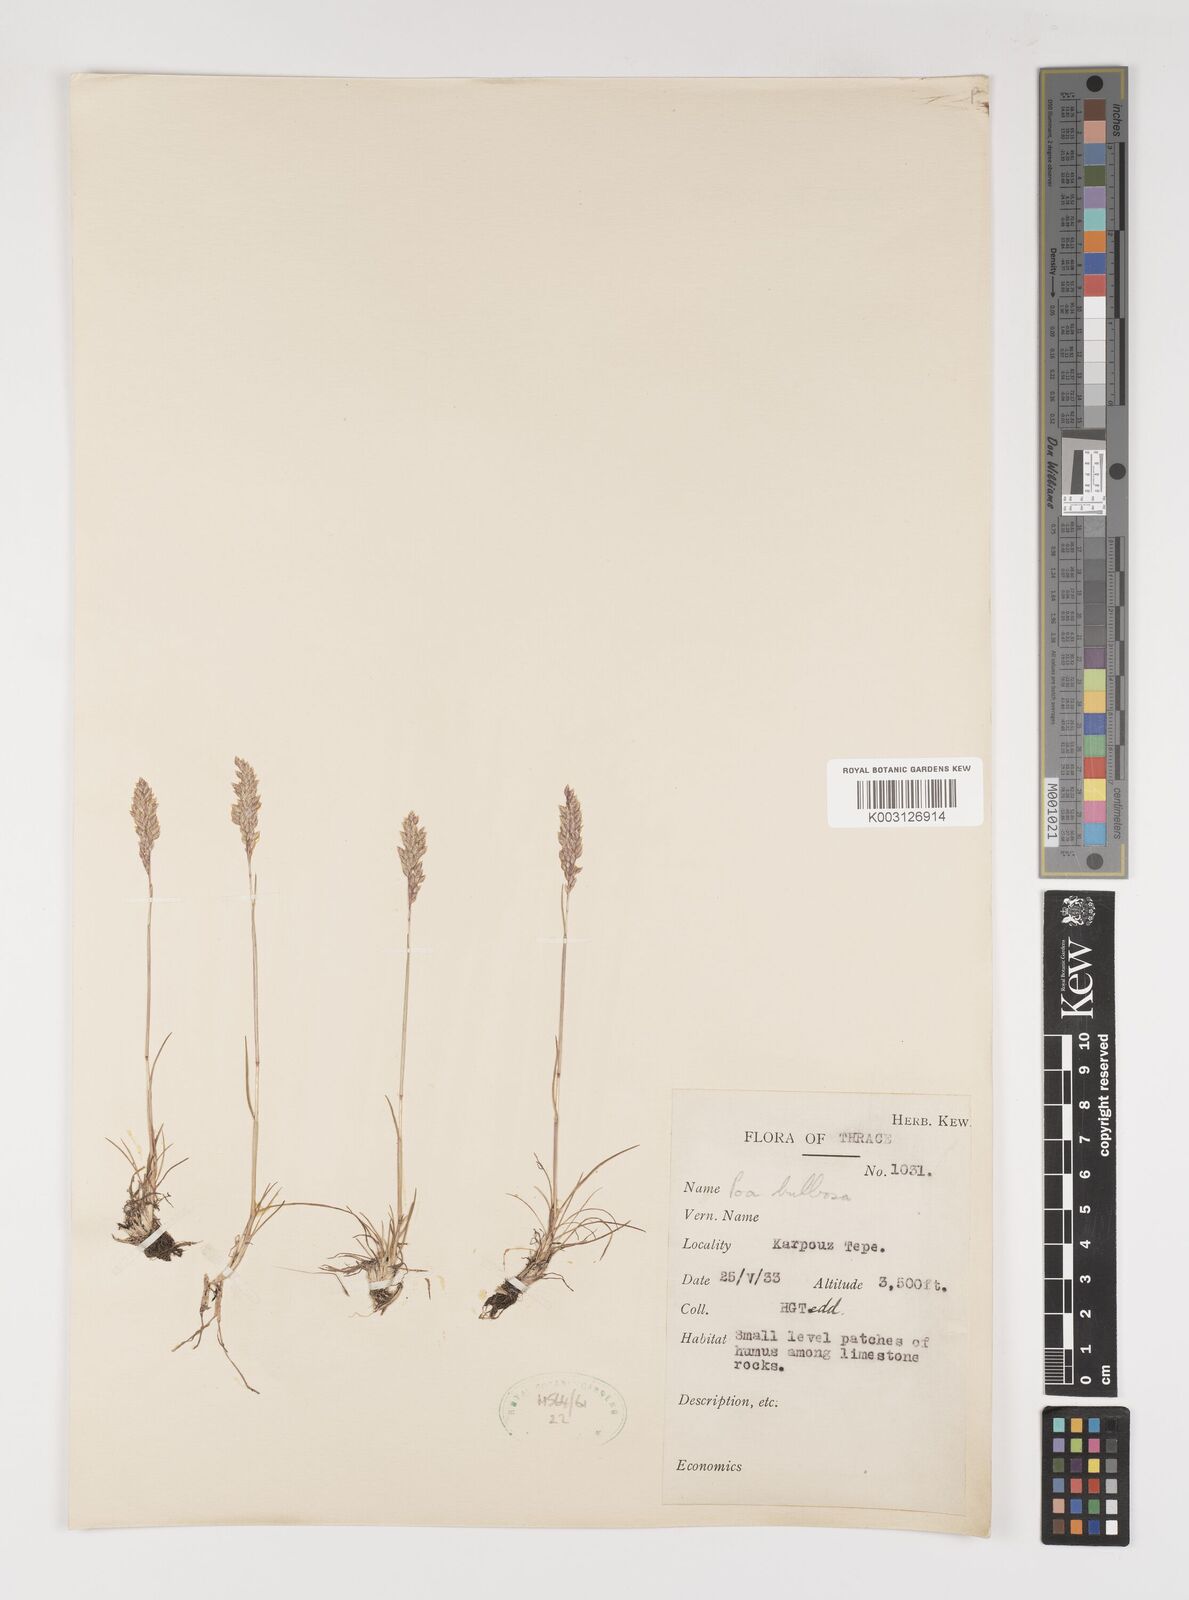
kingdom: Plantae
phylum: Tracheophyta
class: Liliopsida
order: Poales
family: Poaceae
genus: Poa
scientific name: Poa bulbosa
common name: Bulbous bluegrass
